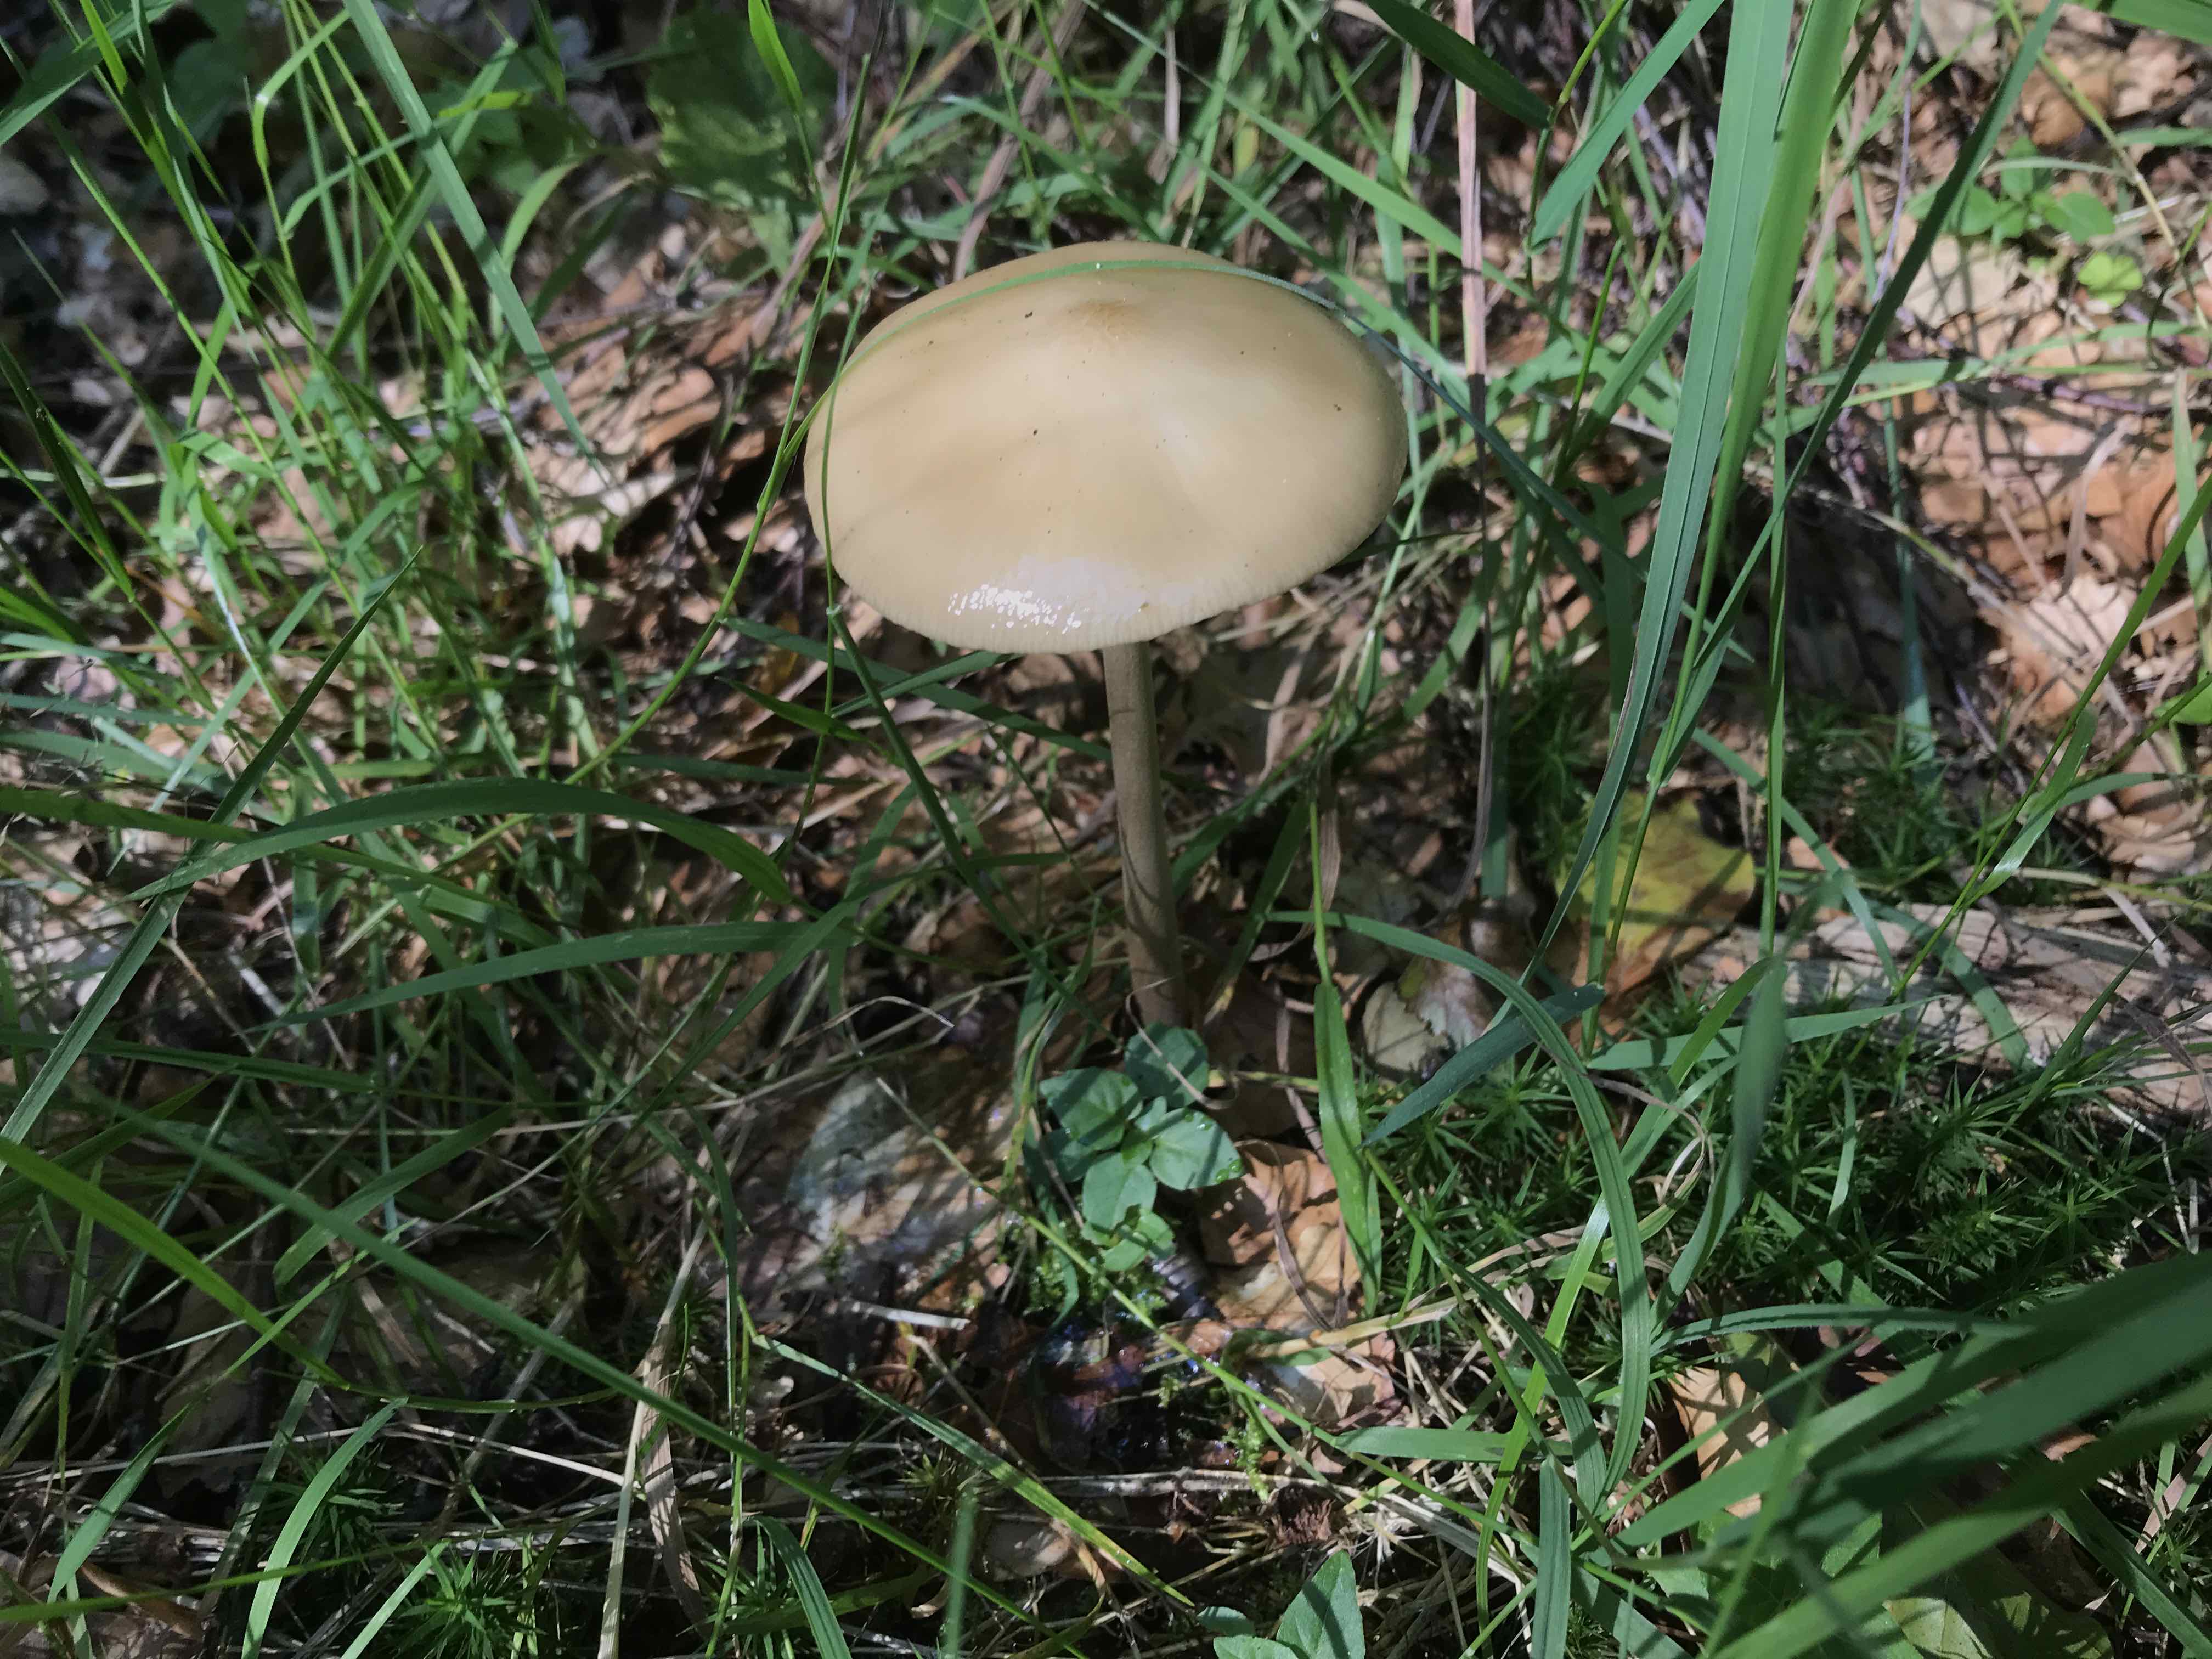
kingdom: Fungi
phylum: Basidiomycota
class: Agaricomycetes
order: Agaricales
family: Physalacriaceae
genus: Hymenopellis
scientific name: Hymenopellis radicata
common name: almindelig pælerodshat
